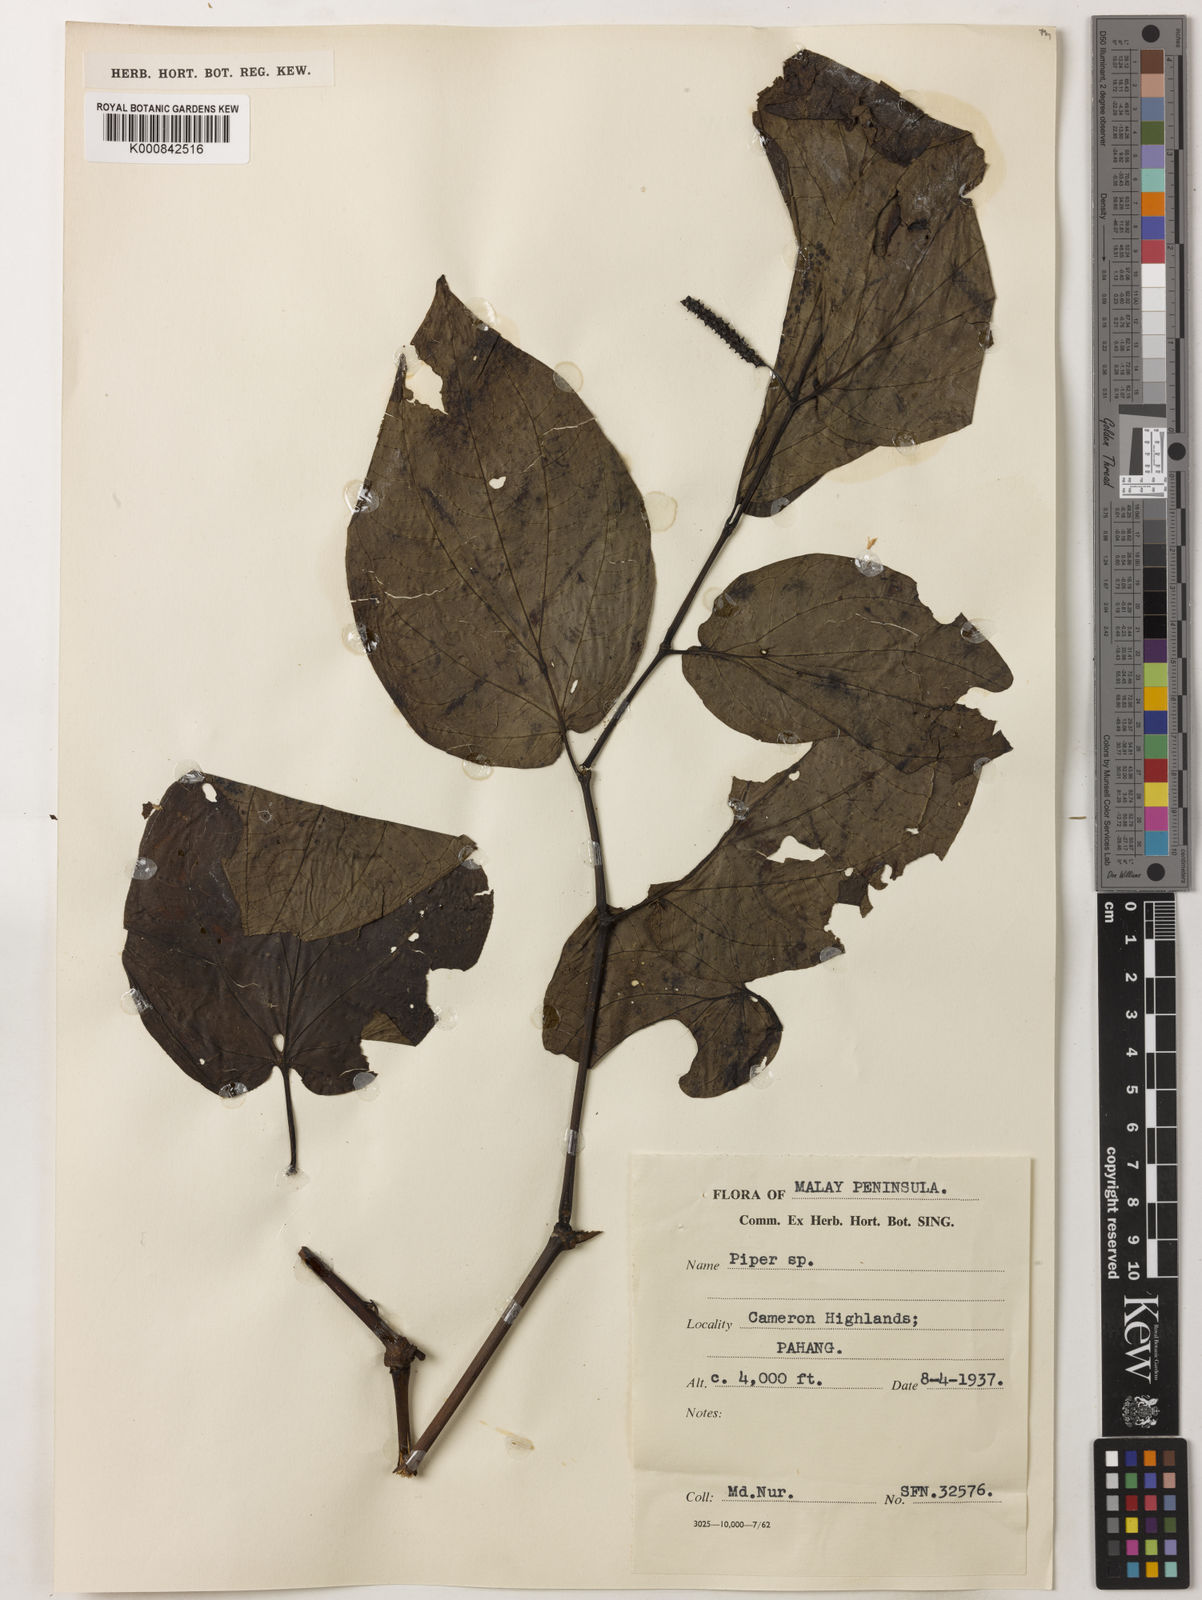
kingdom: Plantae
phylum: Tracheophyta
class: Magnoliopsida
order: Piperales
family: Piperaceae
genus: Piper
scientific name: Piper
